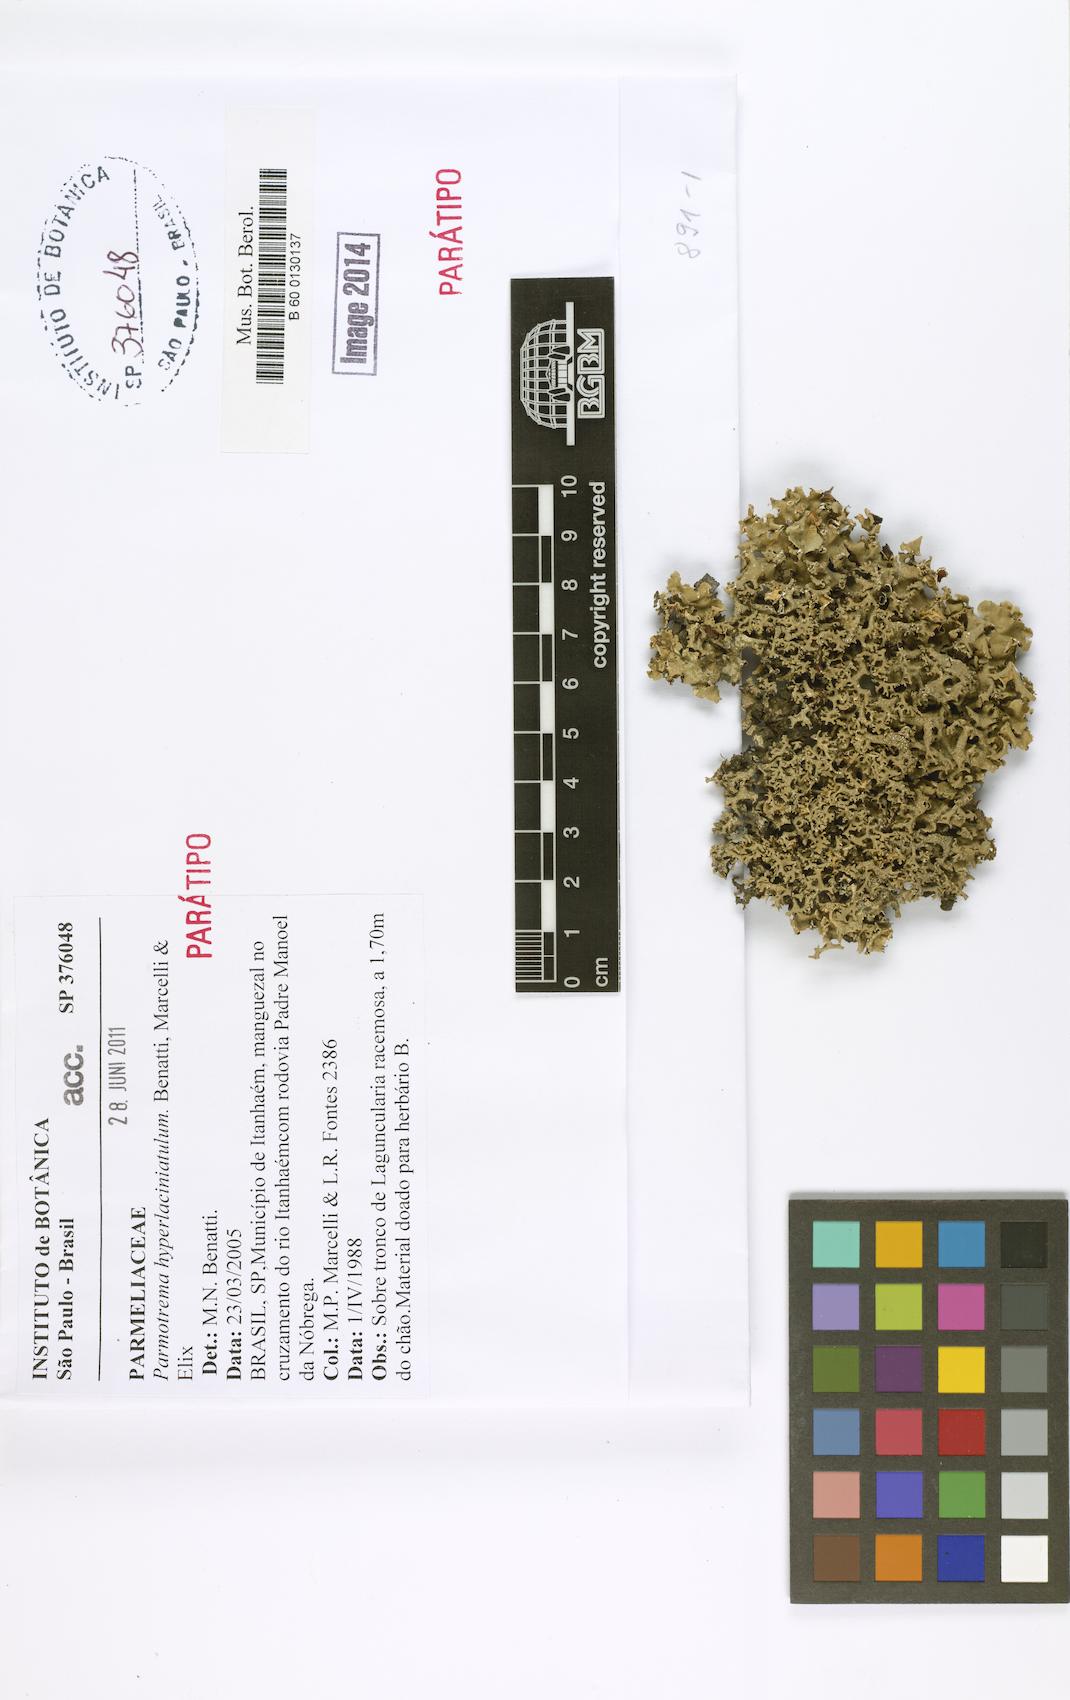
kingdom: Fungi
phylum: Ascomycota
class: Lecanoromycetes
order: Lecanorales
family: Parmeliaceae
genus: Parmotrema
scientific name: Parmotrema hyperlaciniatulum
